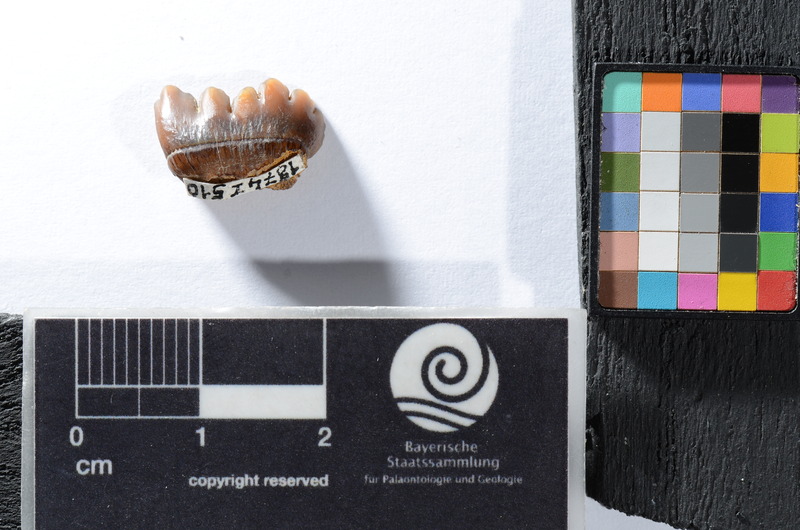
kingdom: Animalia
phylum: Chordata
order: Tetraodontiformes
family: Trigonodontidae
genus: Stephanodus
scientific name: Stephanodus
